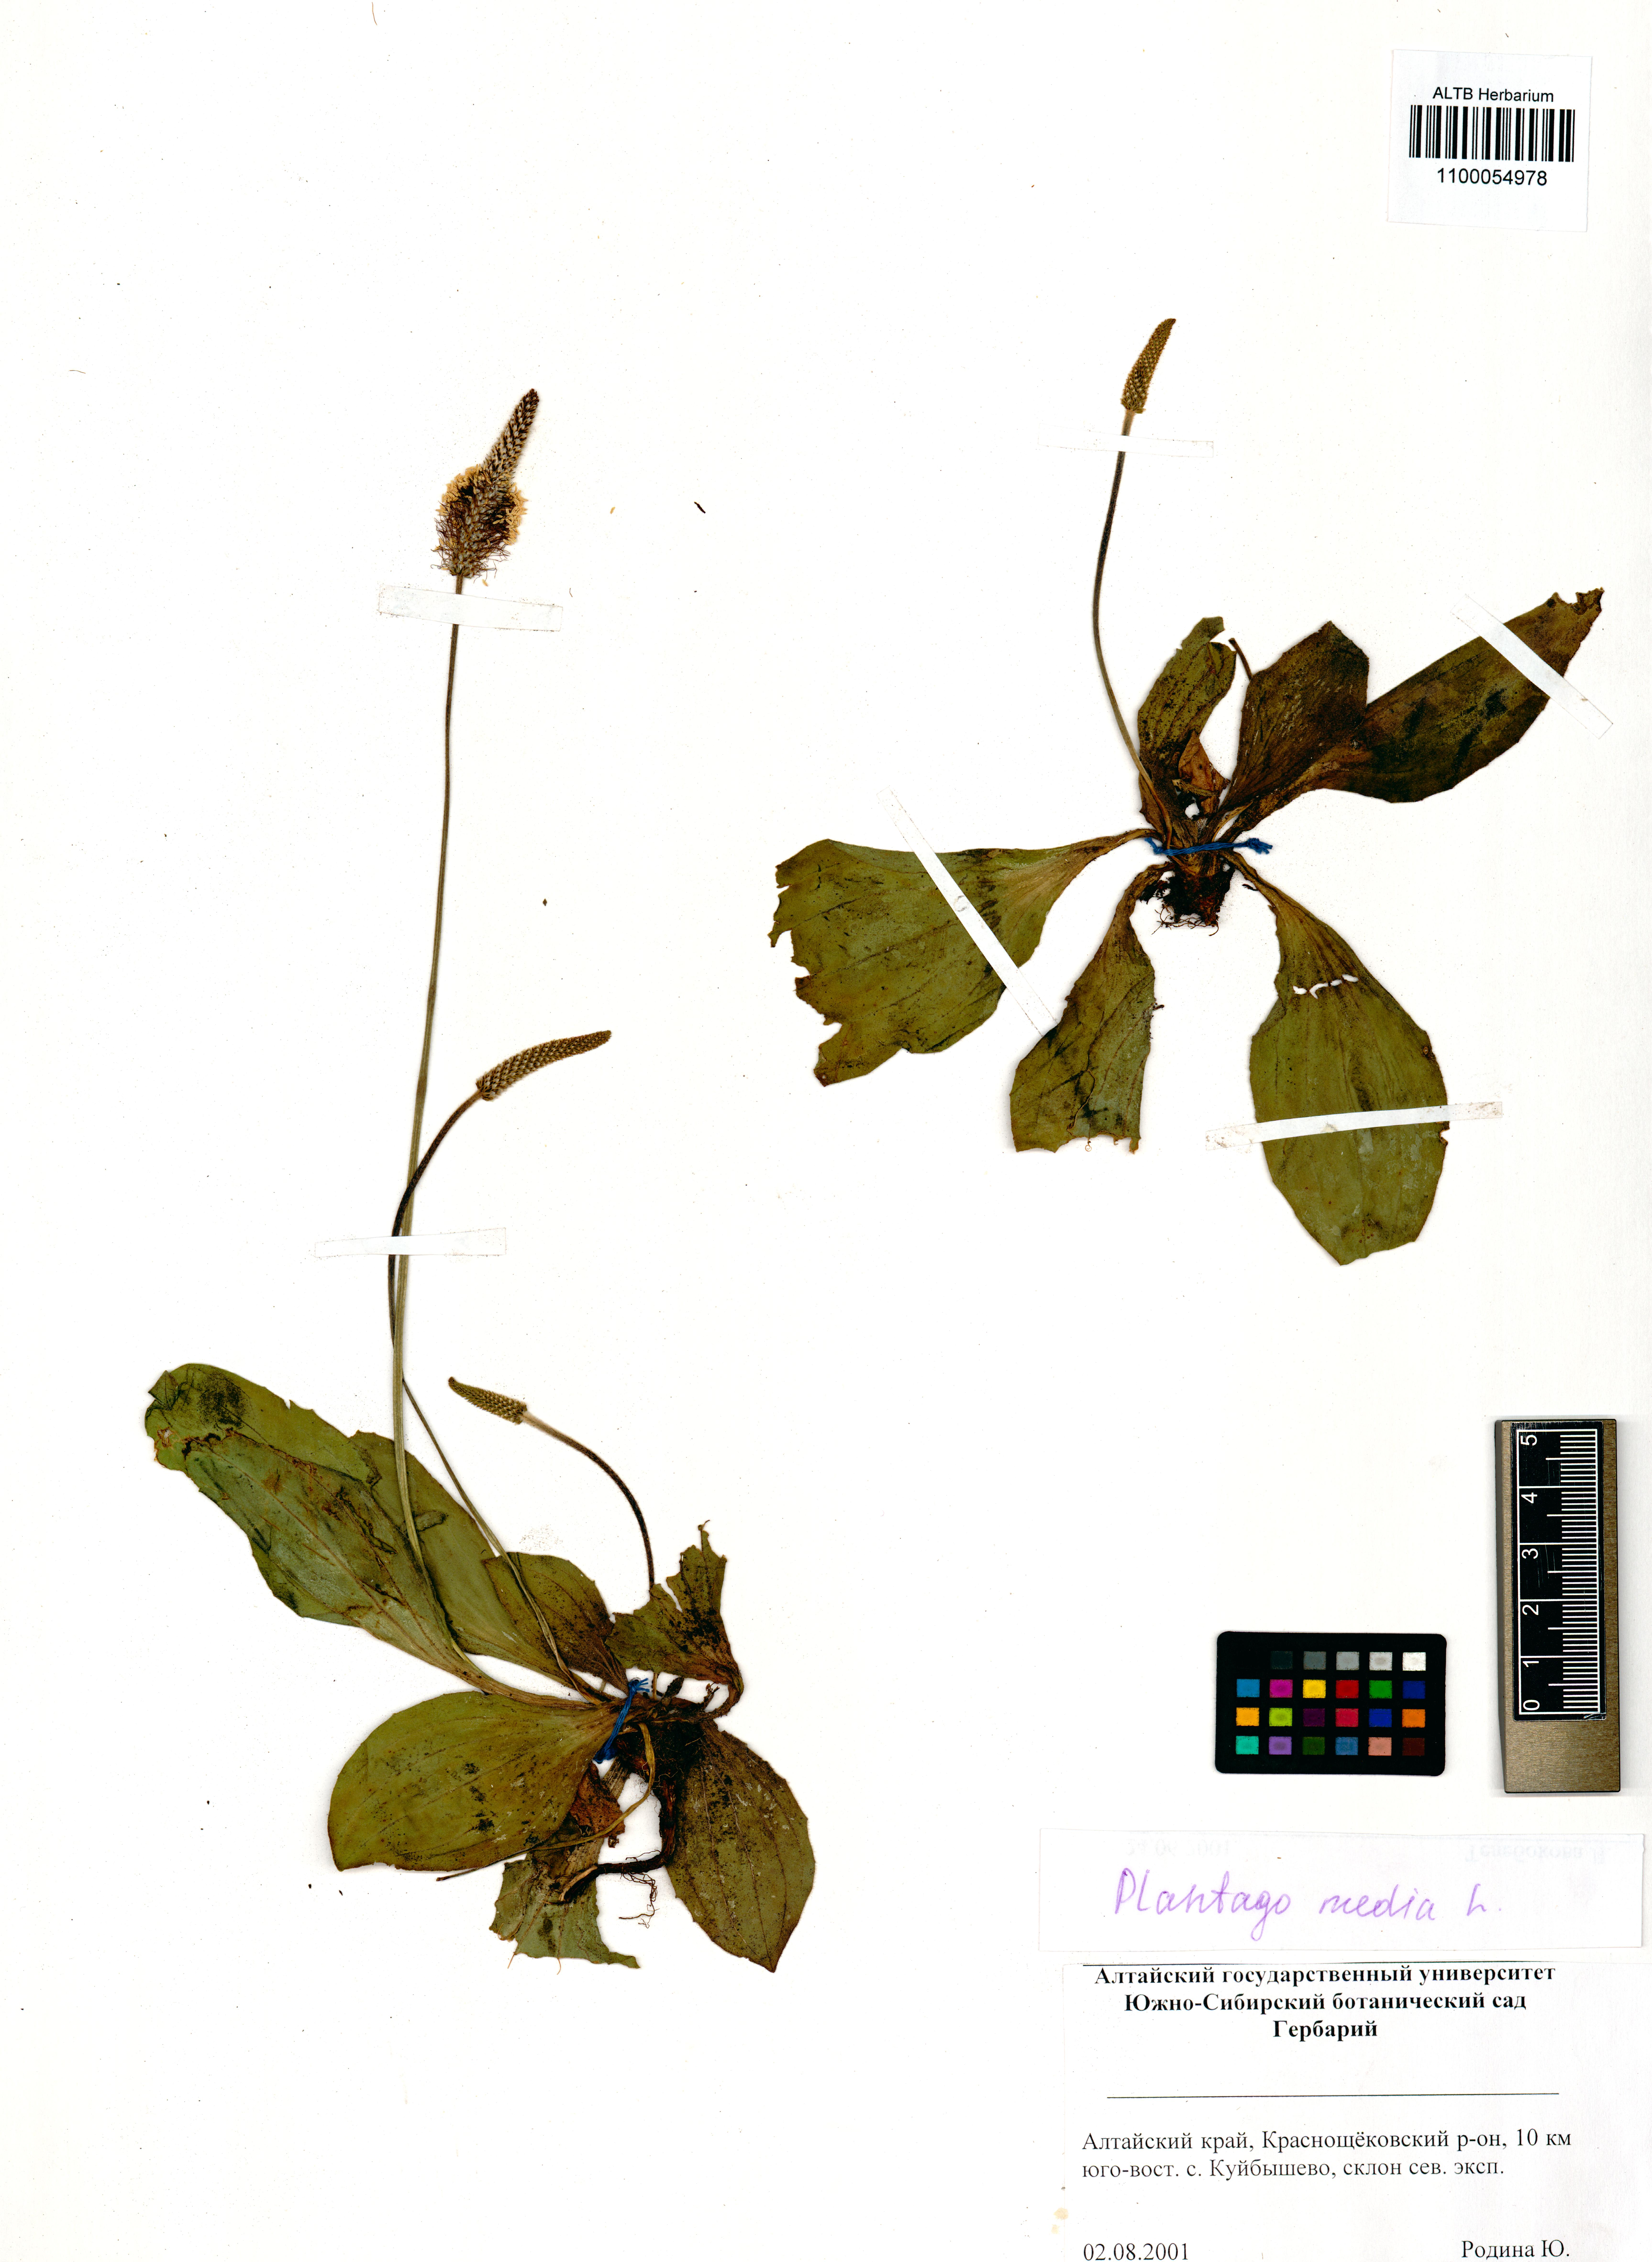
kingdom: Plantae
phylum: Tracheophyta
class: Magnoliopsida
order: Lamiales
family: Plantaginaceae
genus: Plantago
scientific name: Plantago media
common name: Hoary plantain
